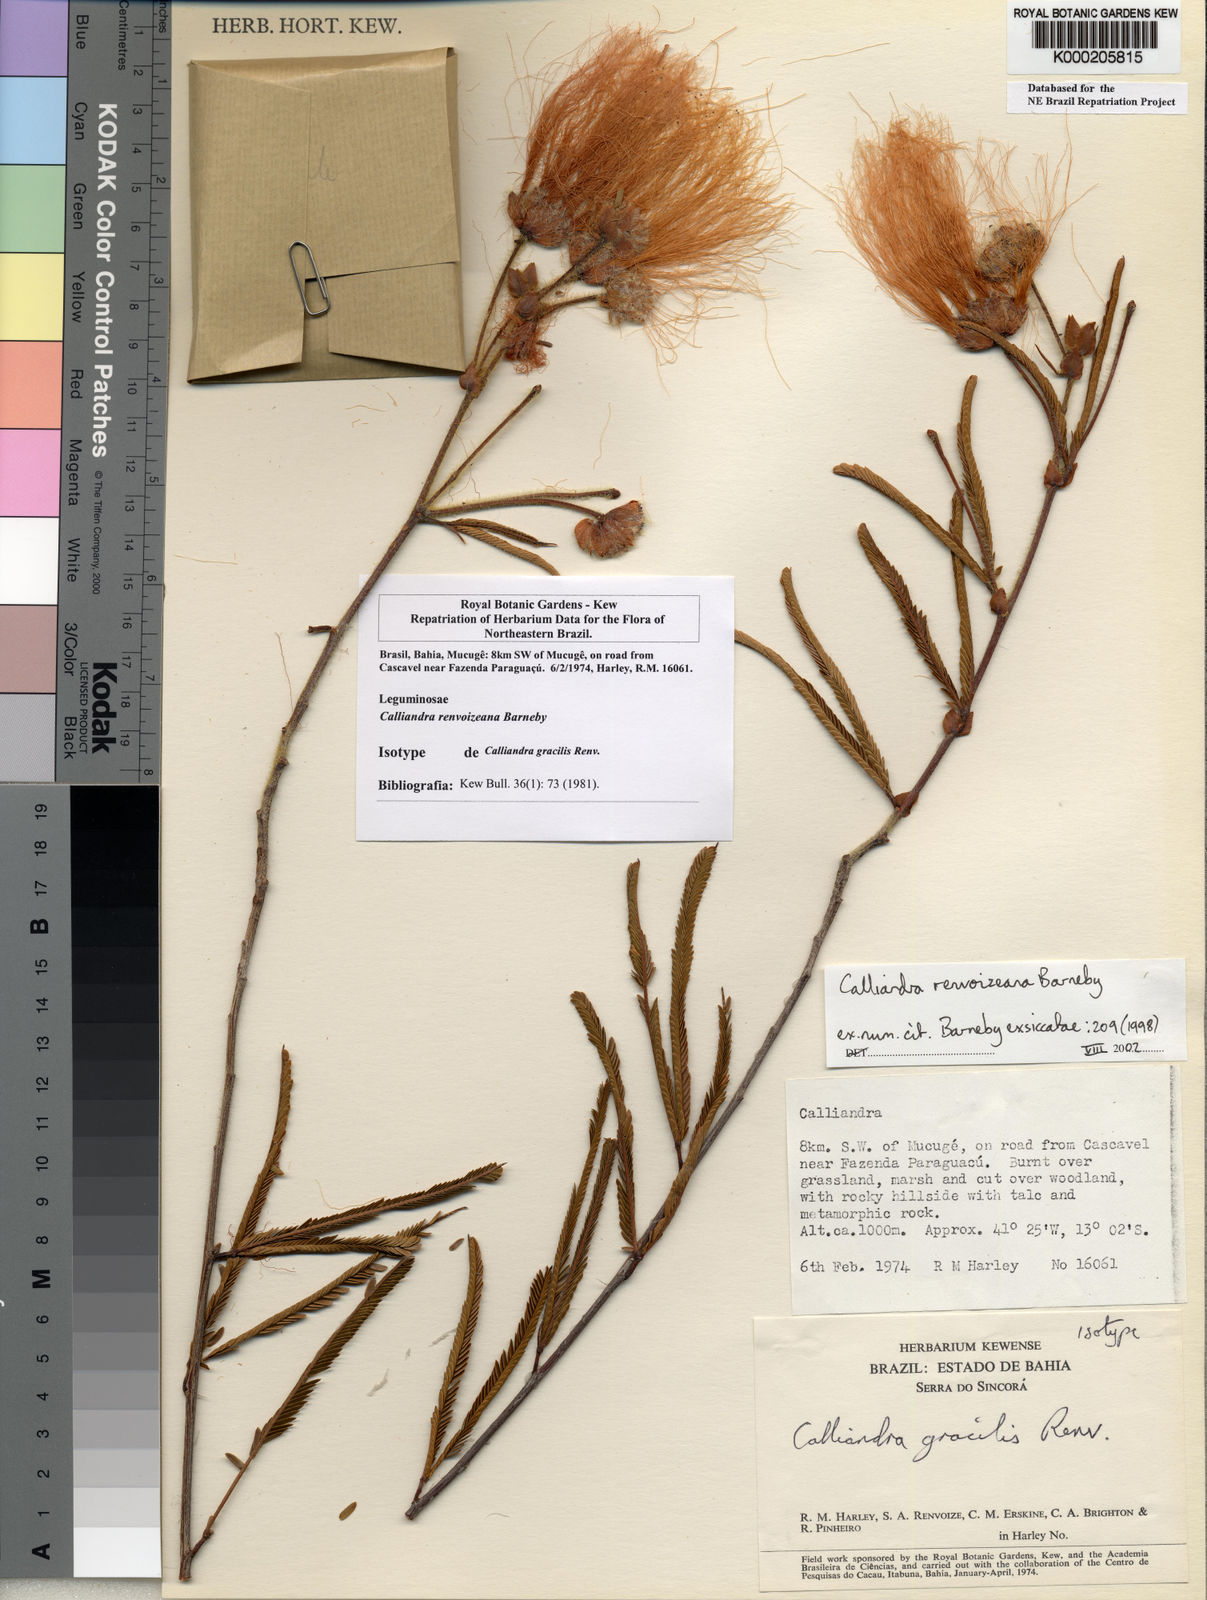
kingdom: Plantae
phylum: Tracheophyta
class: Magnoliopsida
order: Fabales
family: Fabaceae
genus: Calliandra
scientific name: Calliandra renvoizeana
